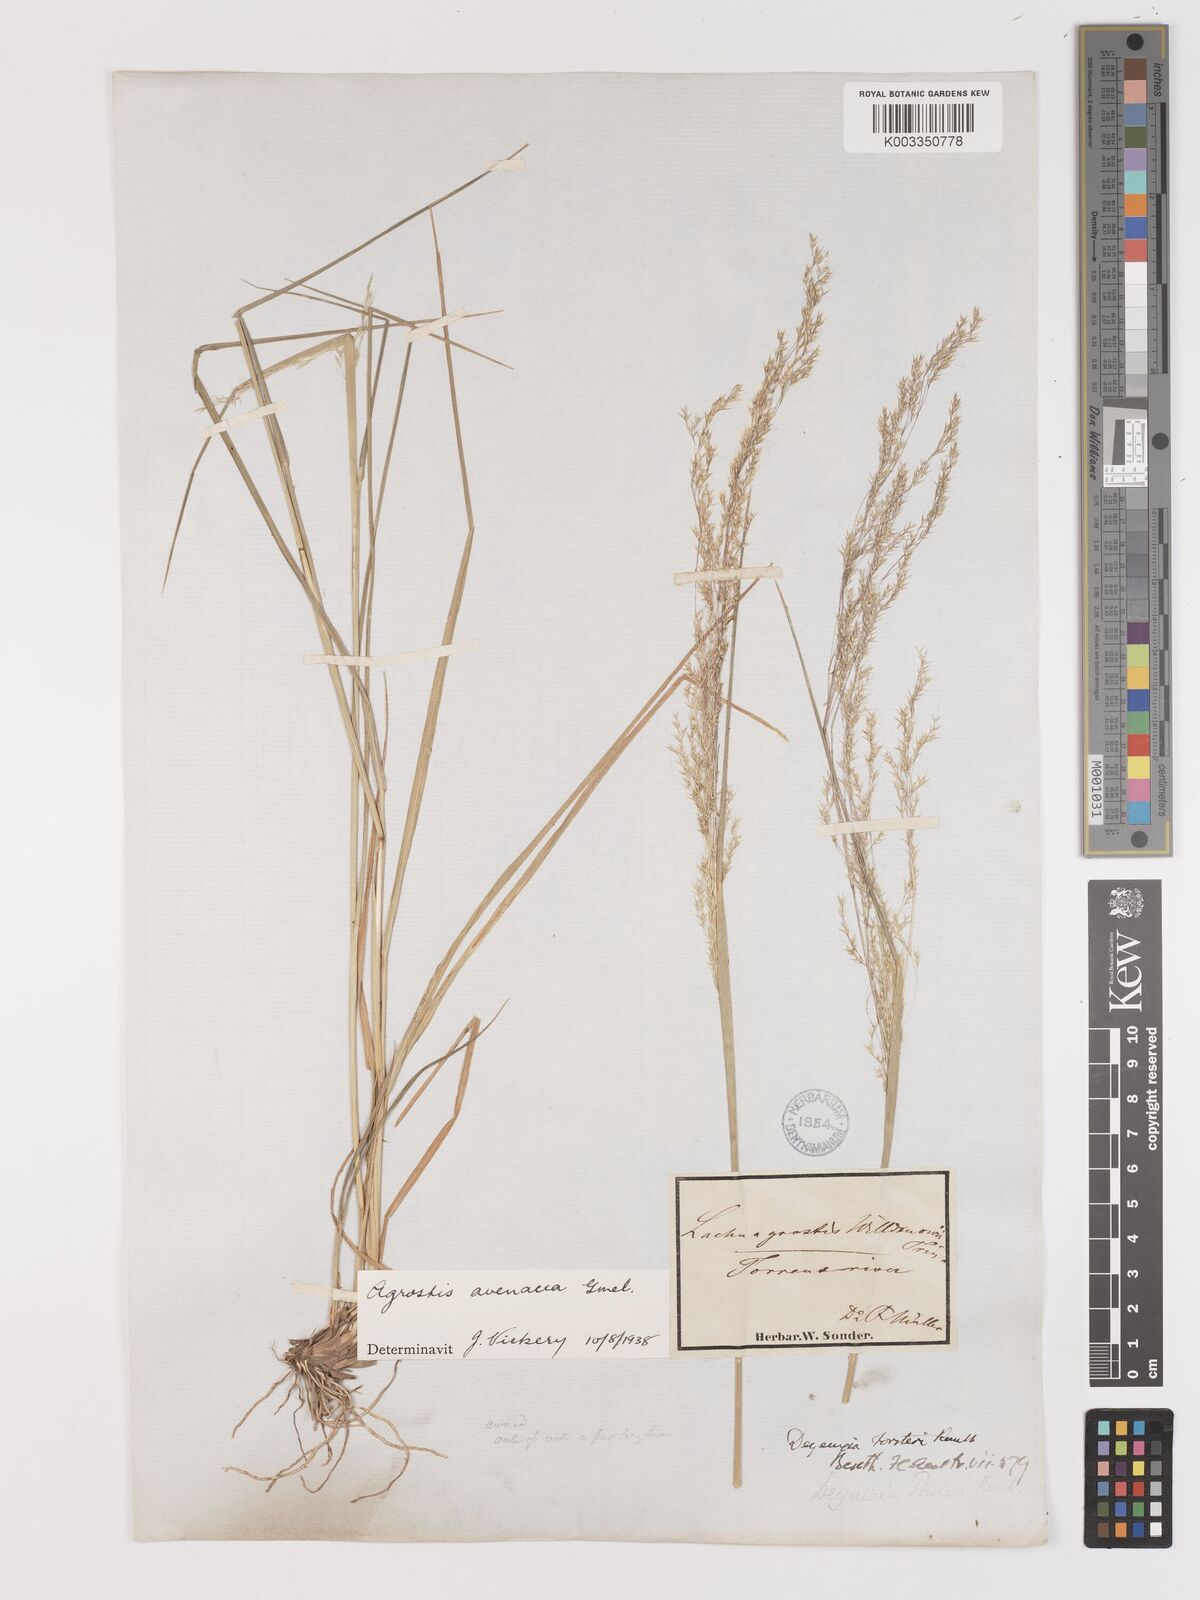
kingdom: Plantae
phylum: Tracheophyta
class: Liliopsida
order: Poales
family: Poaceae
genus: Lachnagrostis
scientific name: Lachnagrostis filiformis
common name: Bentgrass
